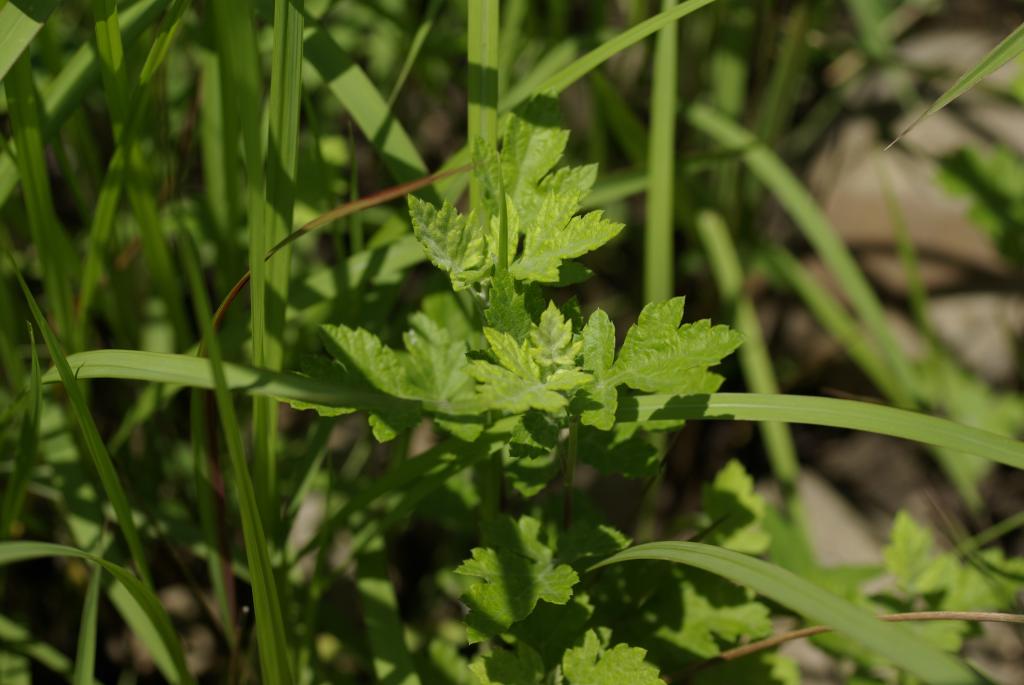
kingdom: Plantae
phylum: Tracheophyta
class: Magnoliopsida
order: Asterales
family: Asteraceae
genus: Chrysanthemum
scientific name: Chrysanthemum lavandulifolium
